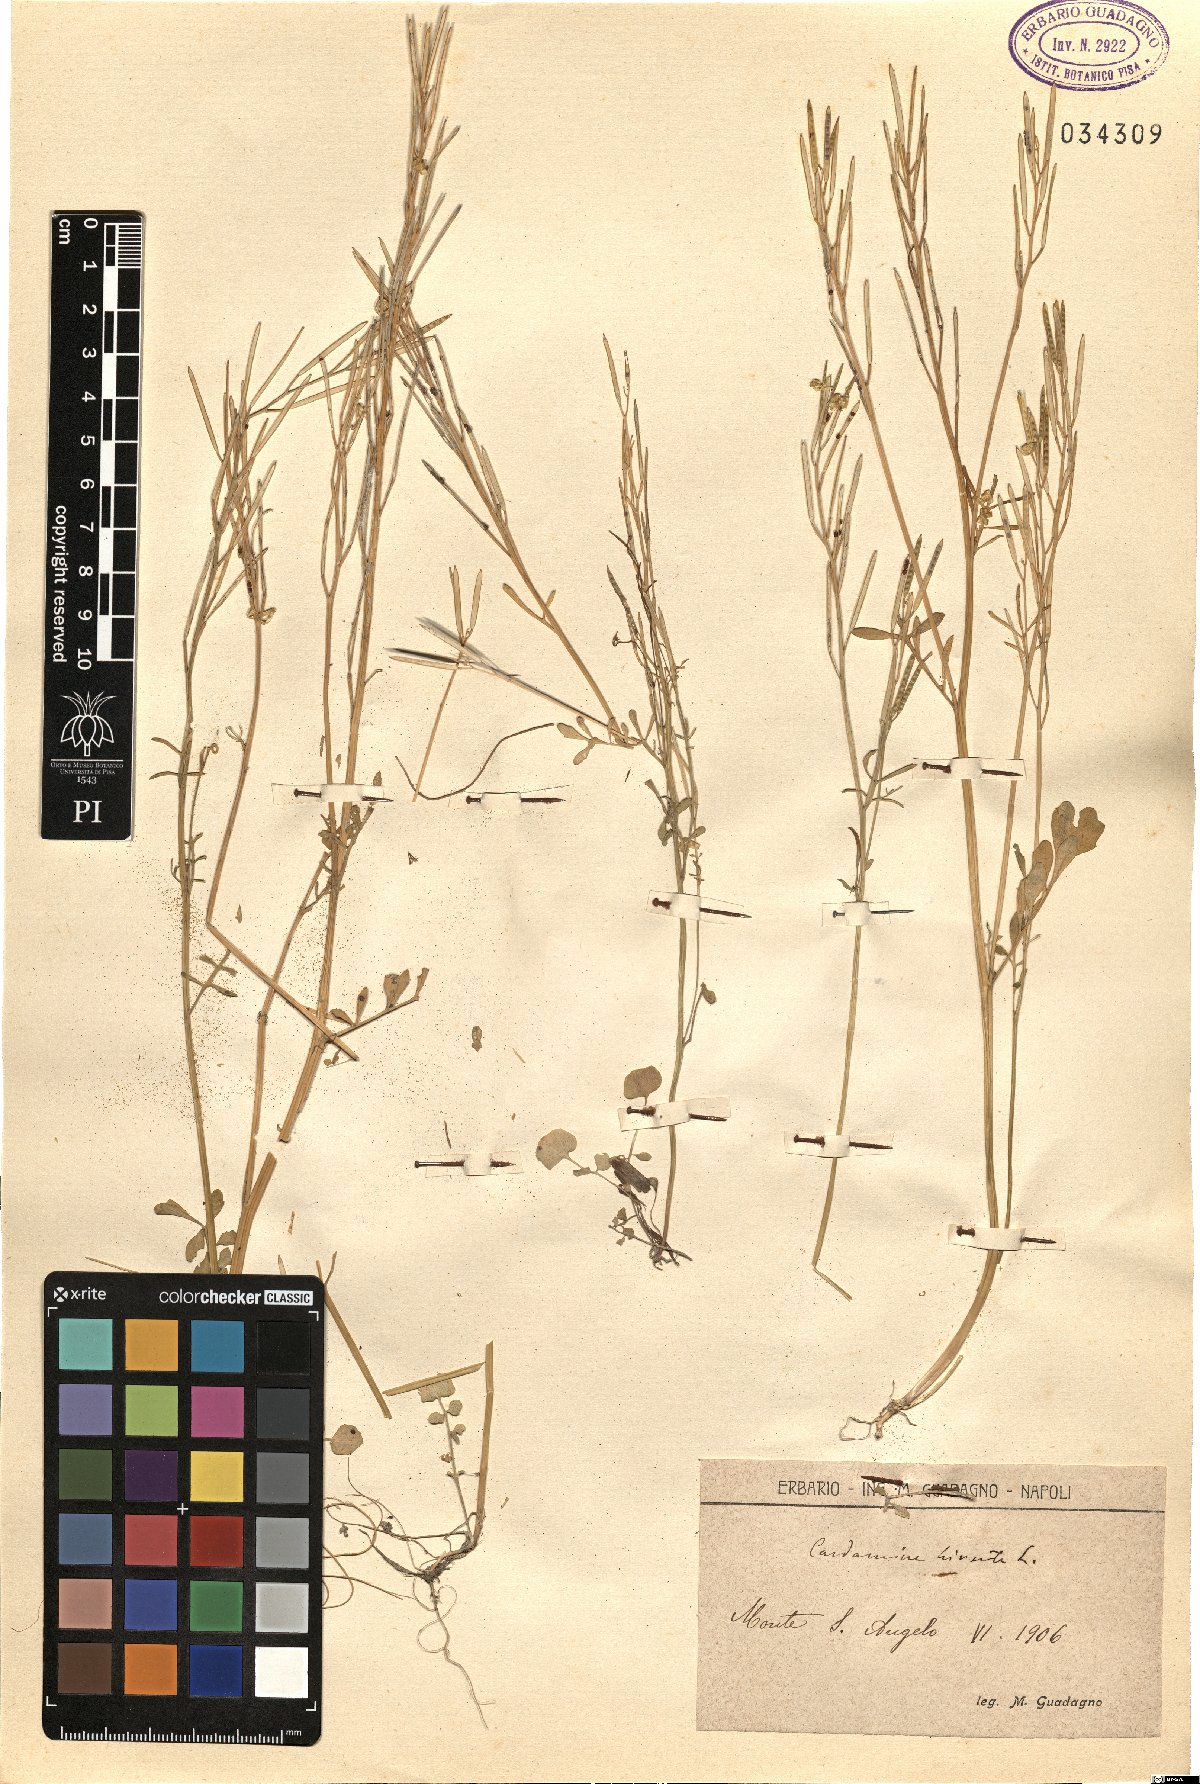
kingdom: Plantae
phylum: Tracheophyta
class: Magnoliopsida
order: Brassicales
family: Brassicaceae
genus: Cardamine
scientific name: Cardamine hirsuta
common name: Hairy bittercress
